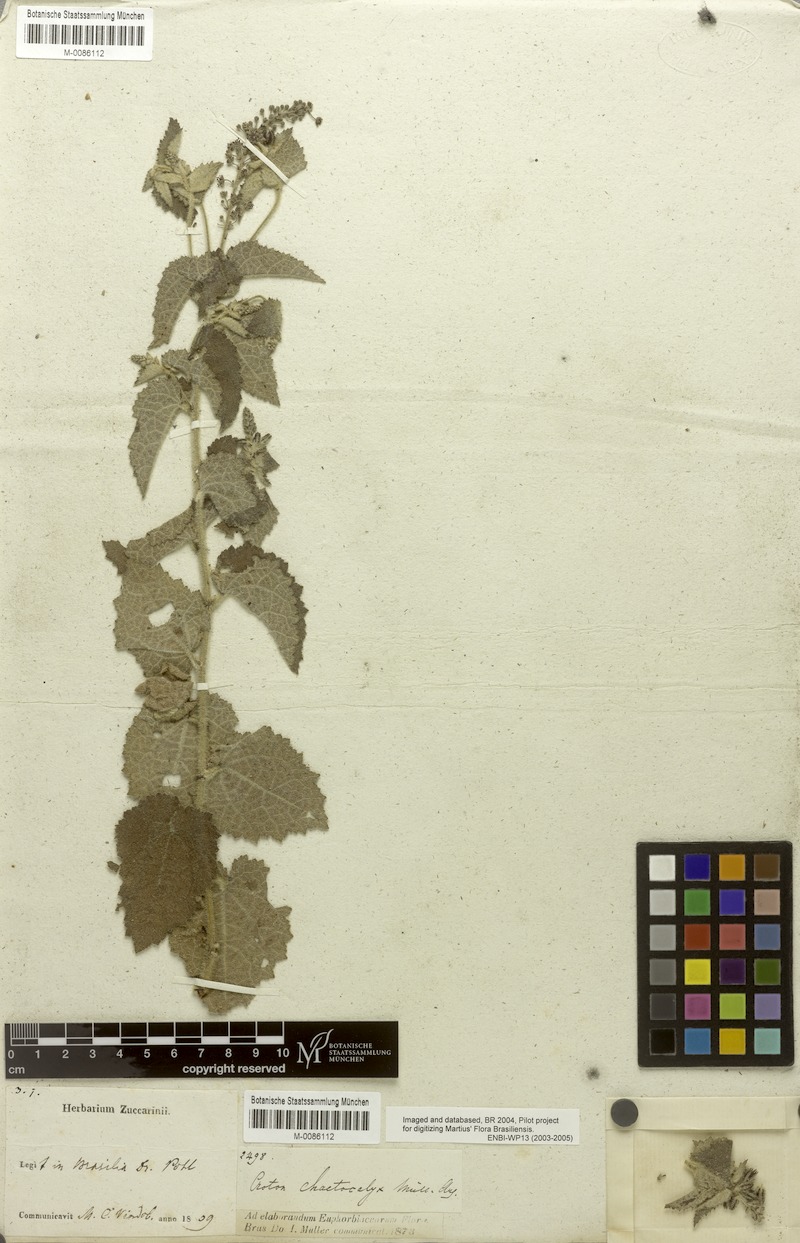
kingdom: Plantae
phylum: Tracheophyta
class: Magnoliopsida
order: Malpighiales
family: Euphorbiaceae
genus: Croton
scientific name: Croton catariae
